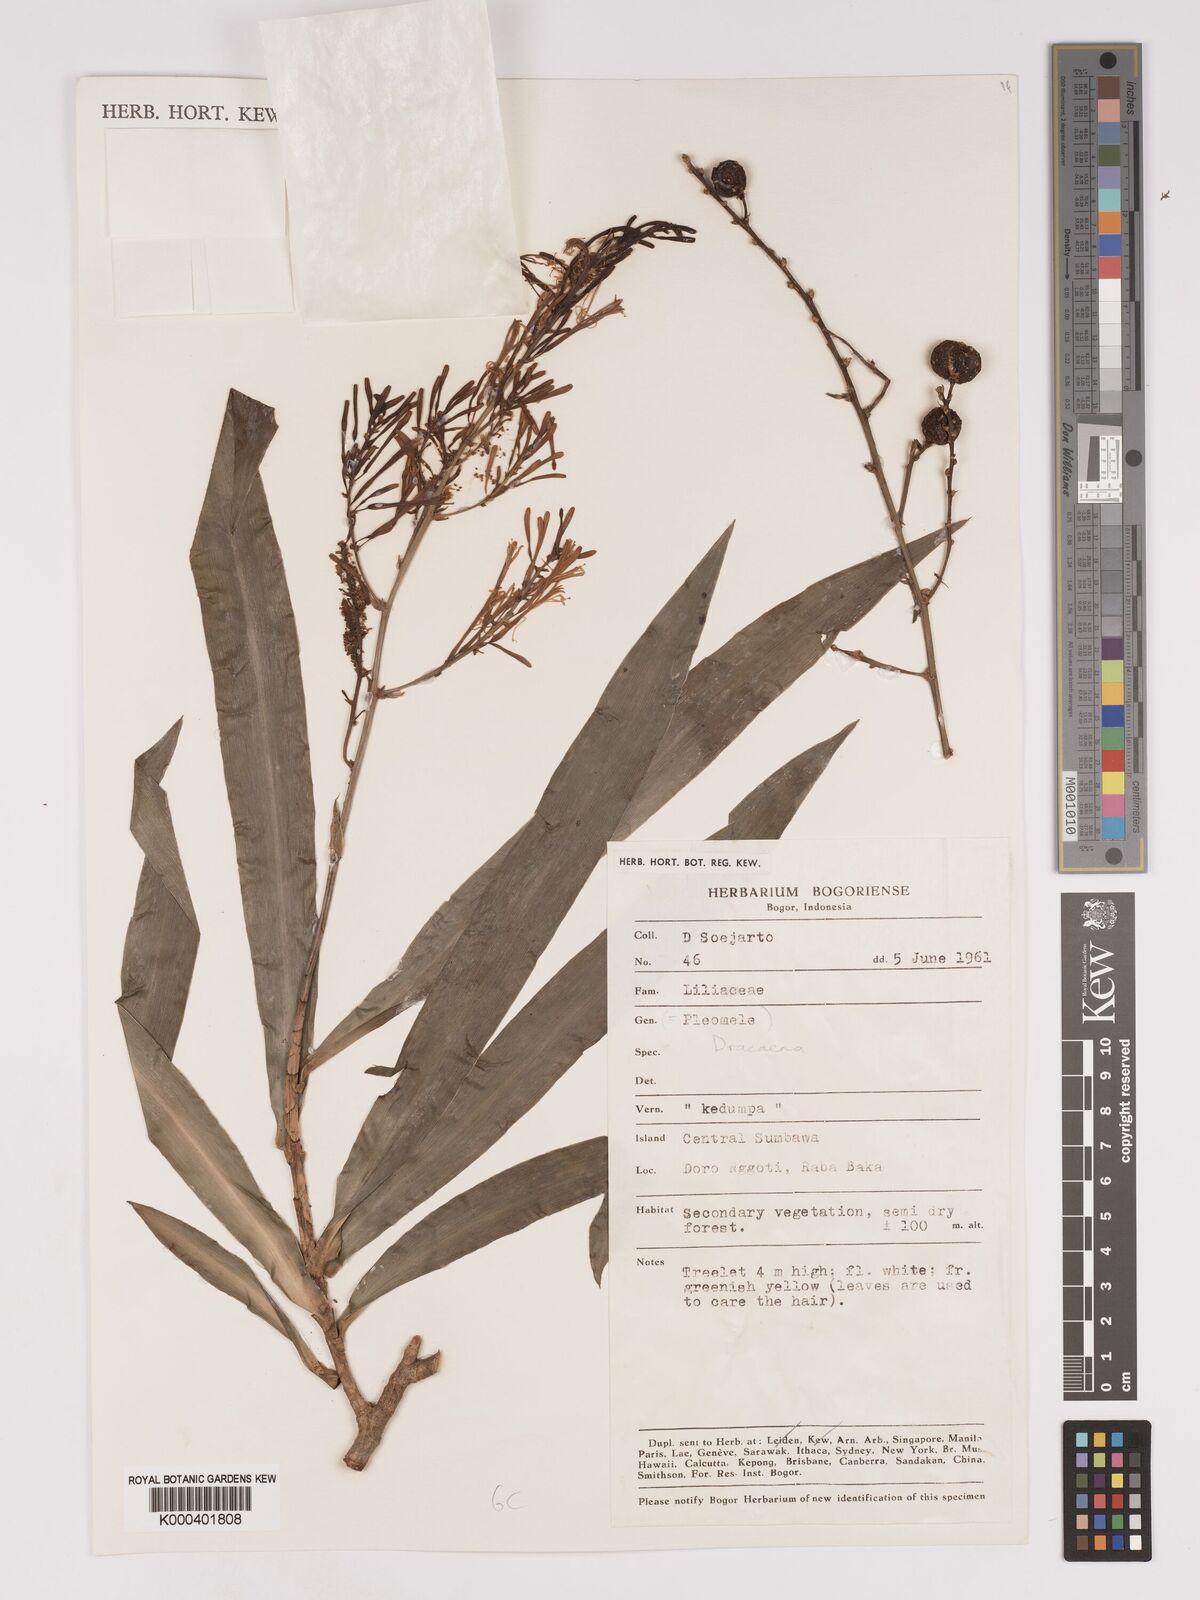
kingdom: Plantae
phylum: Tracheophyta
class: Liliopsida
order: Asparagales
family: Asparagaceae
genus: Dracaena
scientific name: Dracaena
